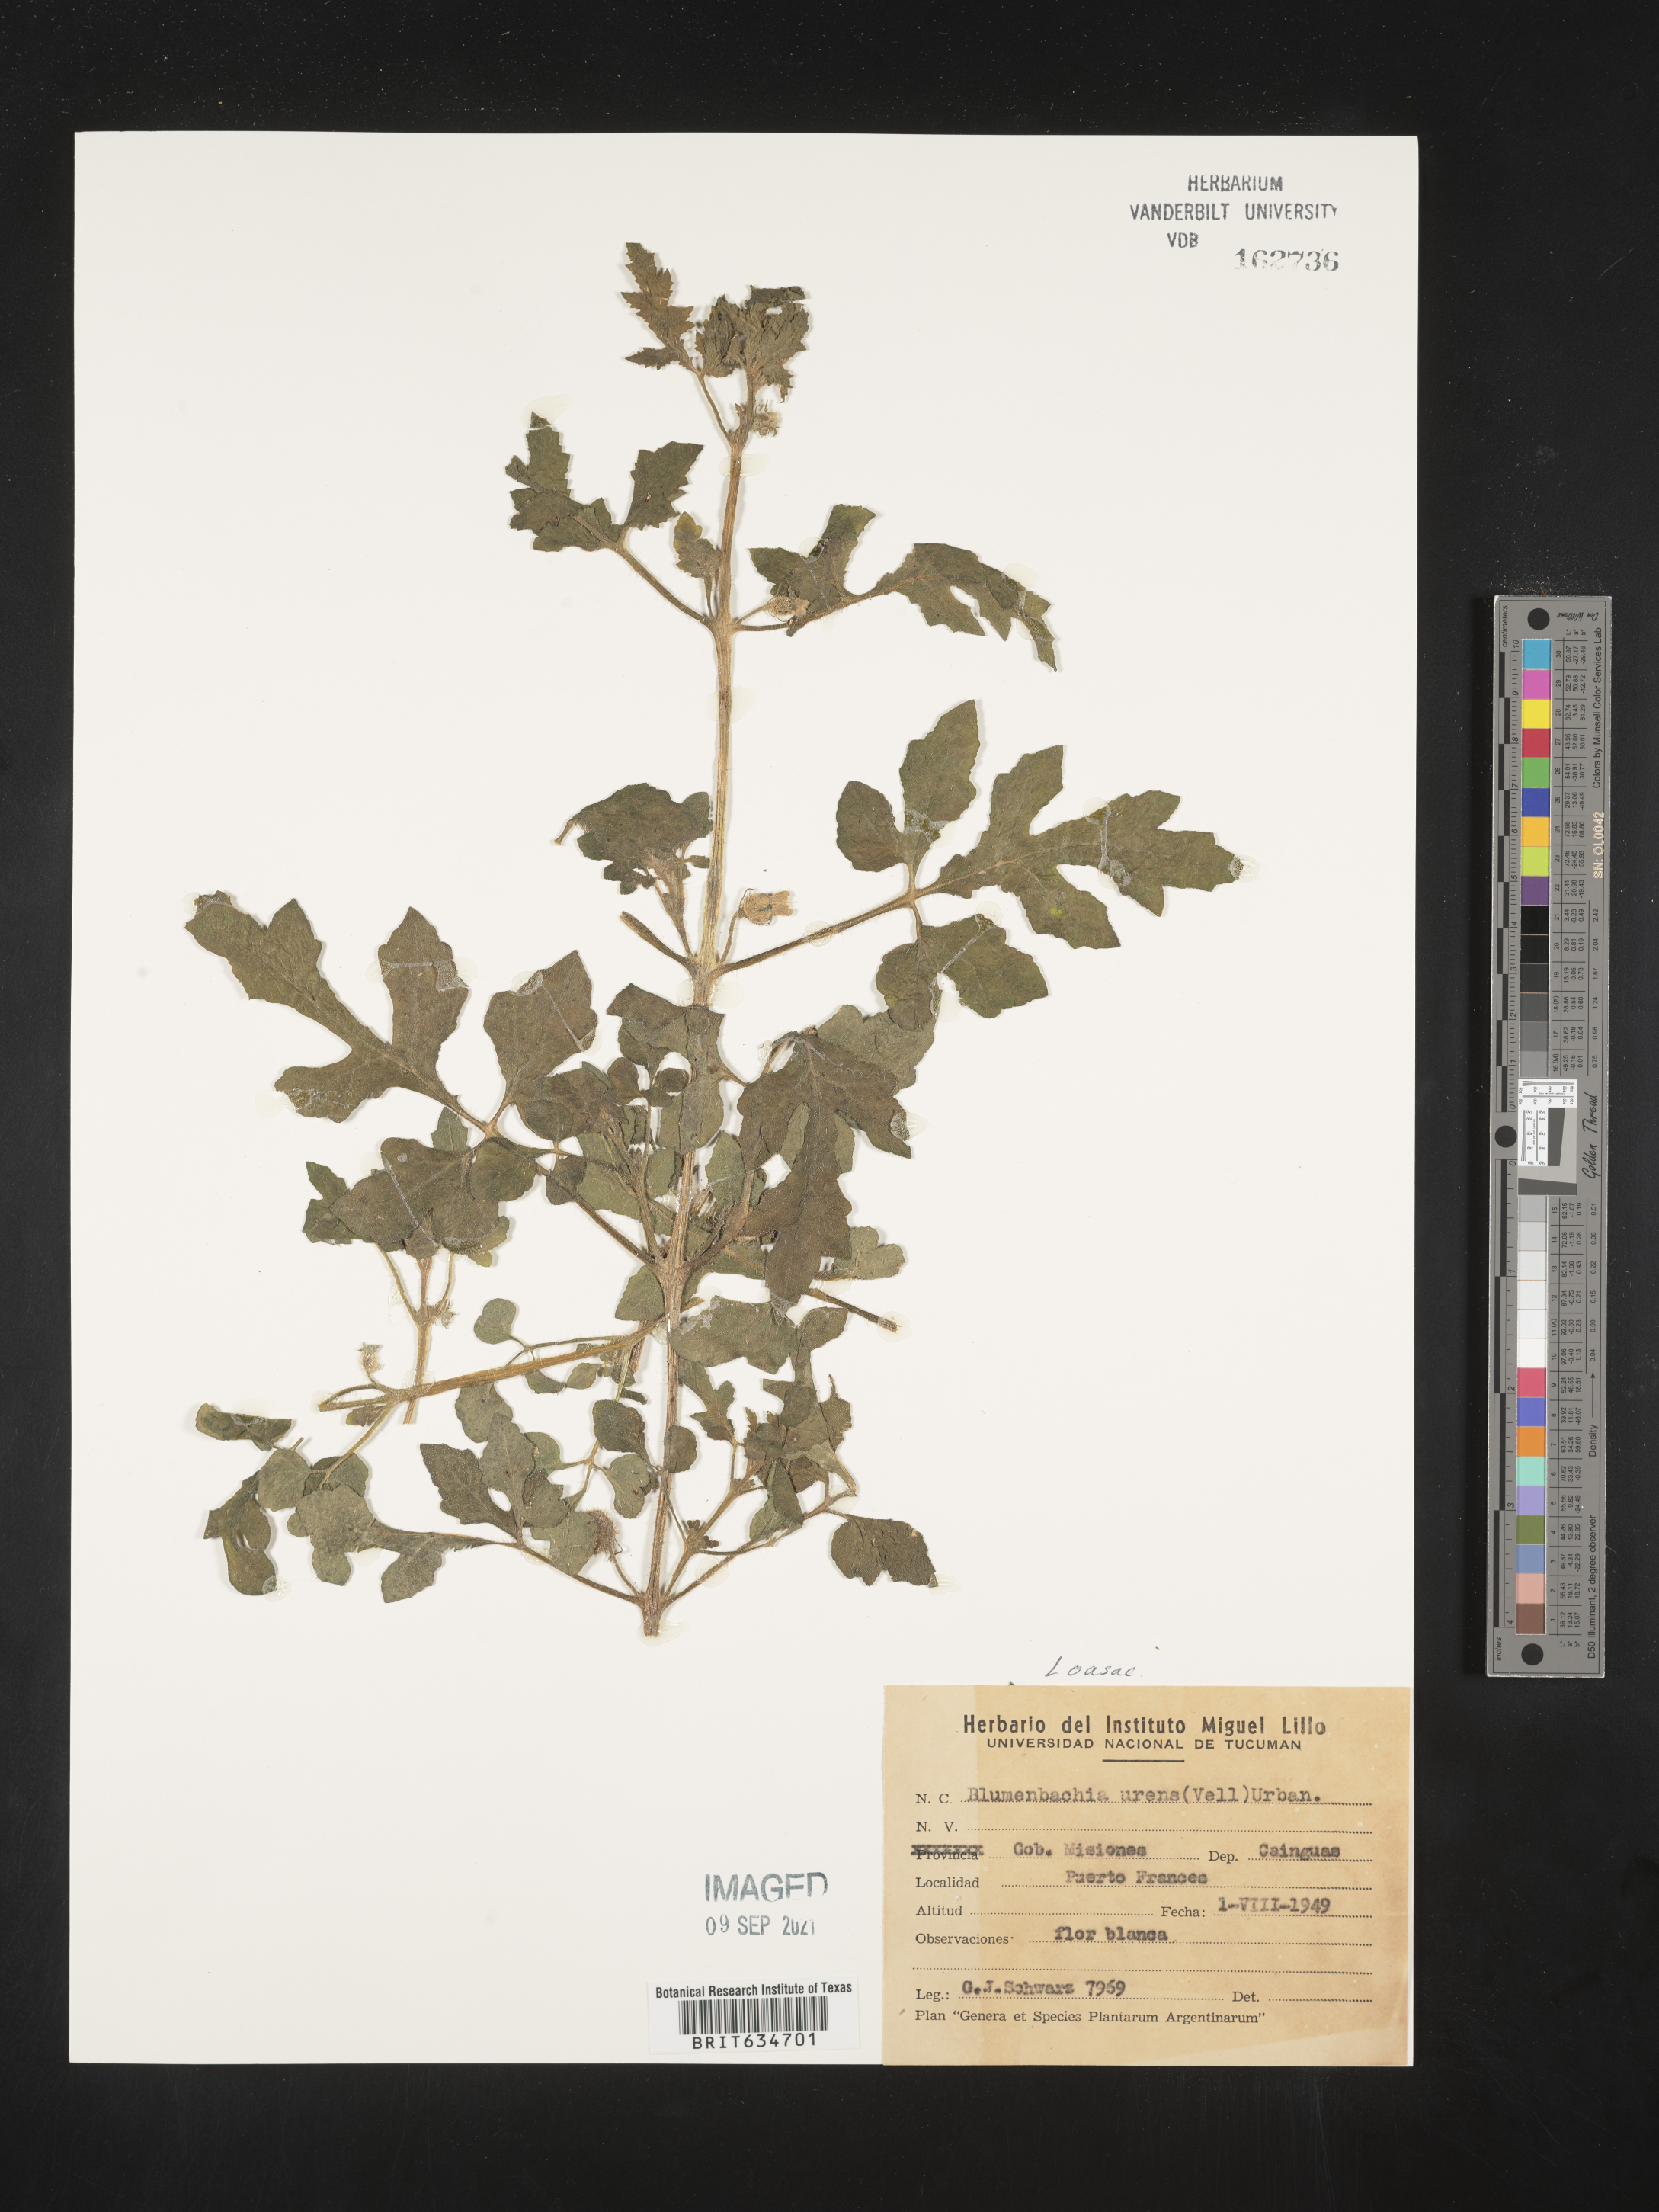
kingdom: Plantae
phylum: Tracheophyta
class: Magnoliopsida
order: Cornales
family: Loasaceae
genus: Blumenbachia
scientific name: Blumenbachia
